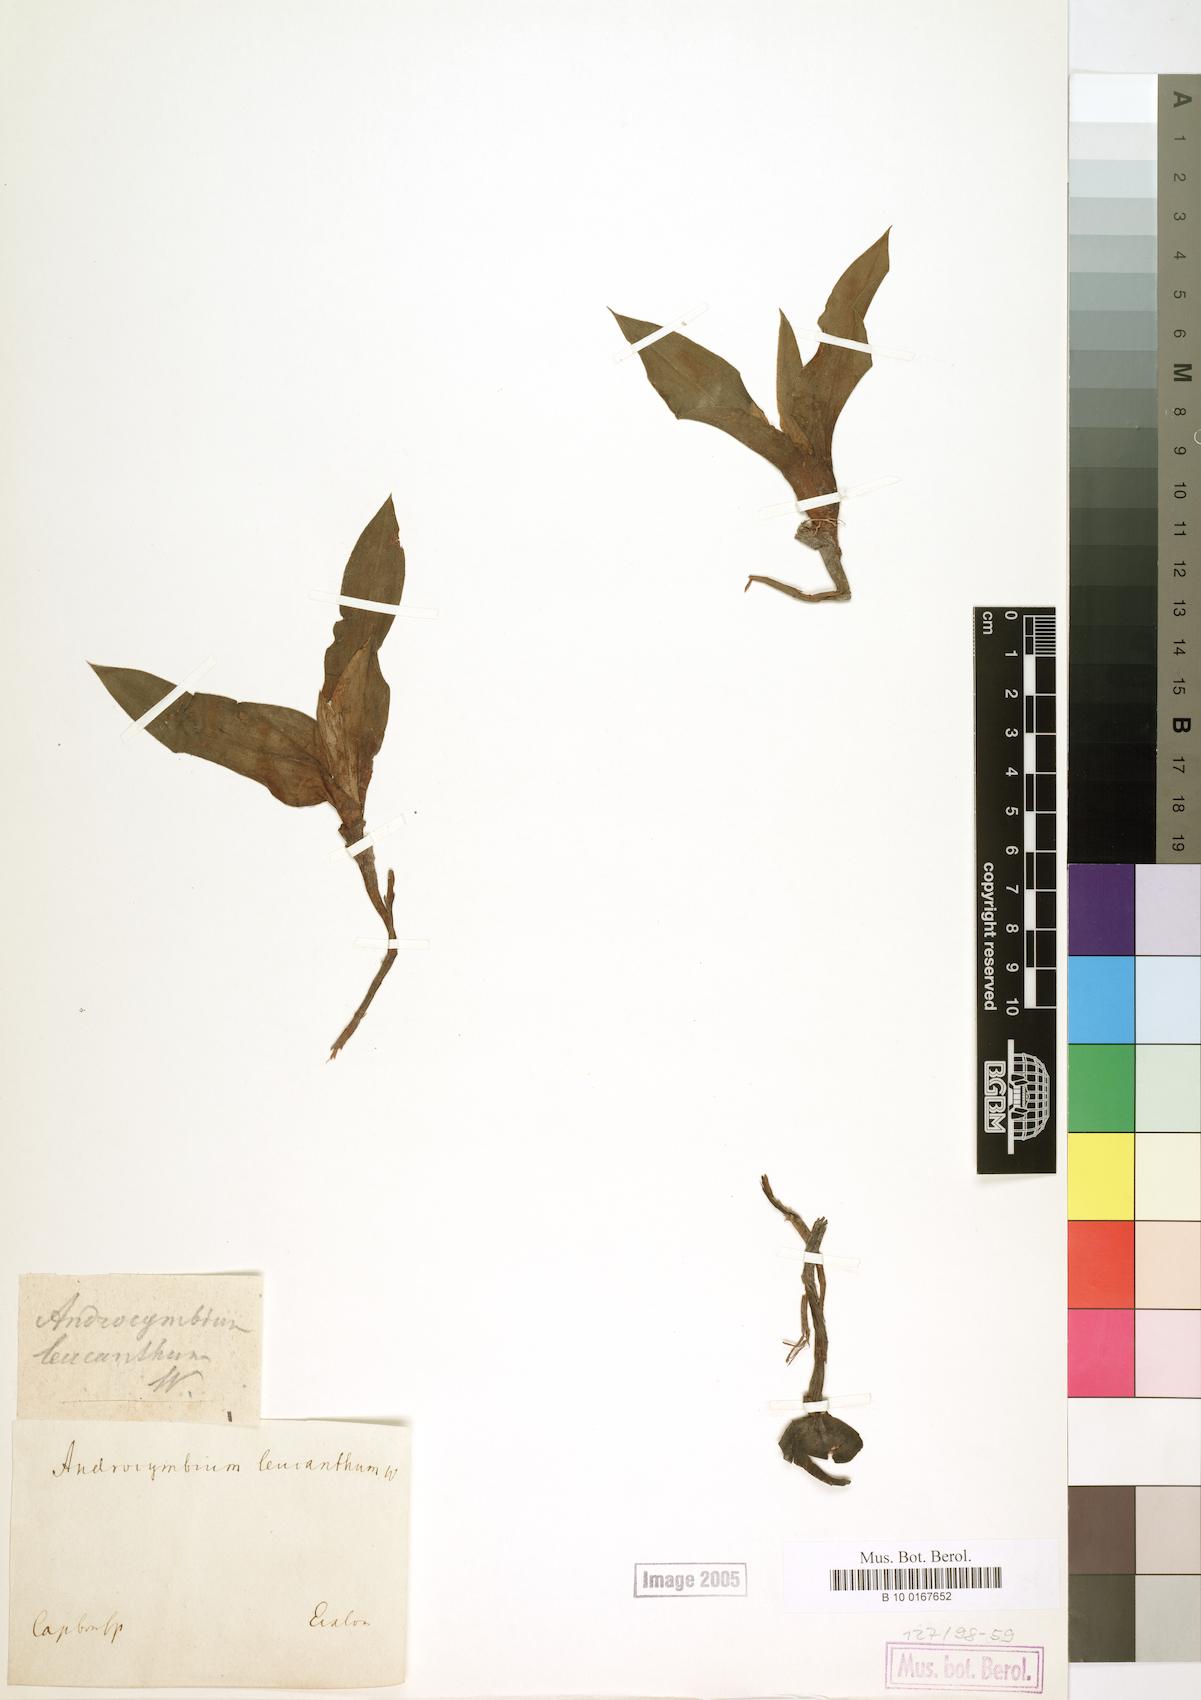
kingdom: Plantae
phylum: Tracheophyta
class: Liliopsida
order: Liliales
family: Colchicaceae
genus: Colchicum
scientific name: Colchicum capense
